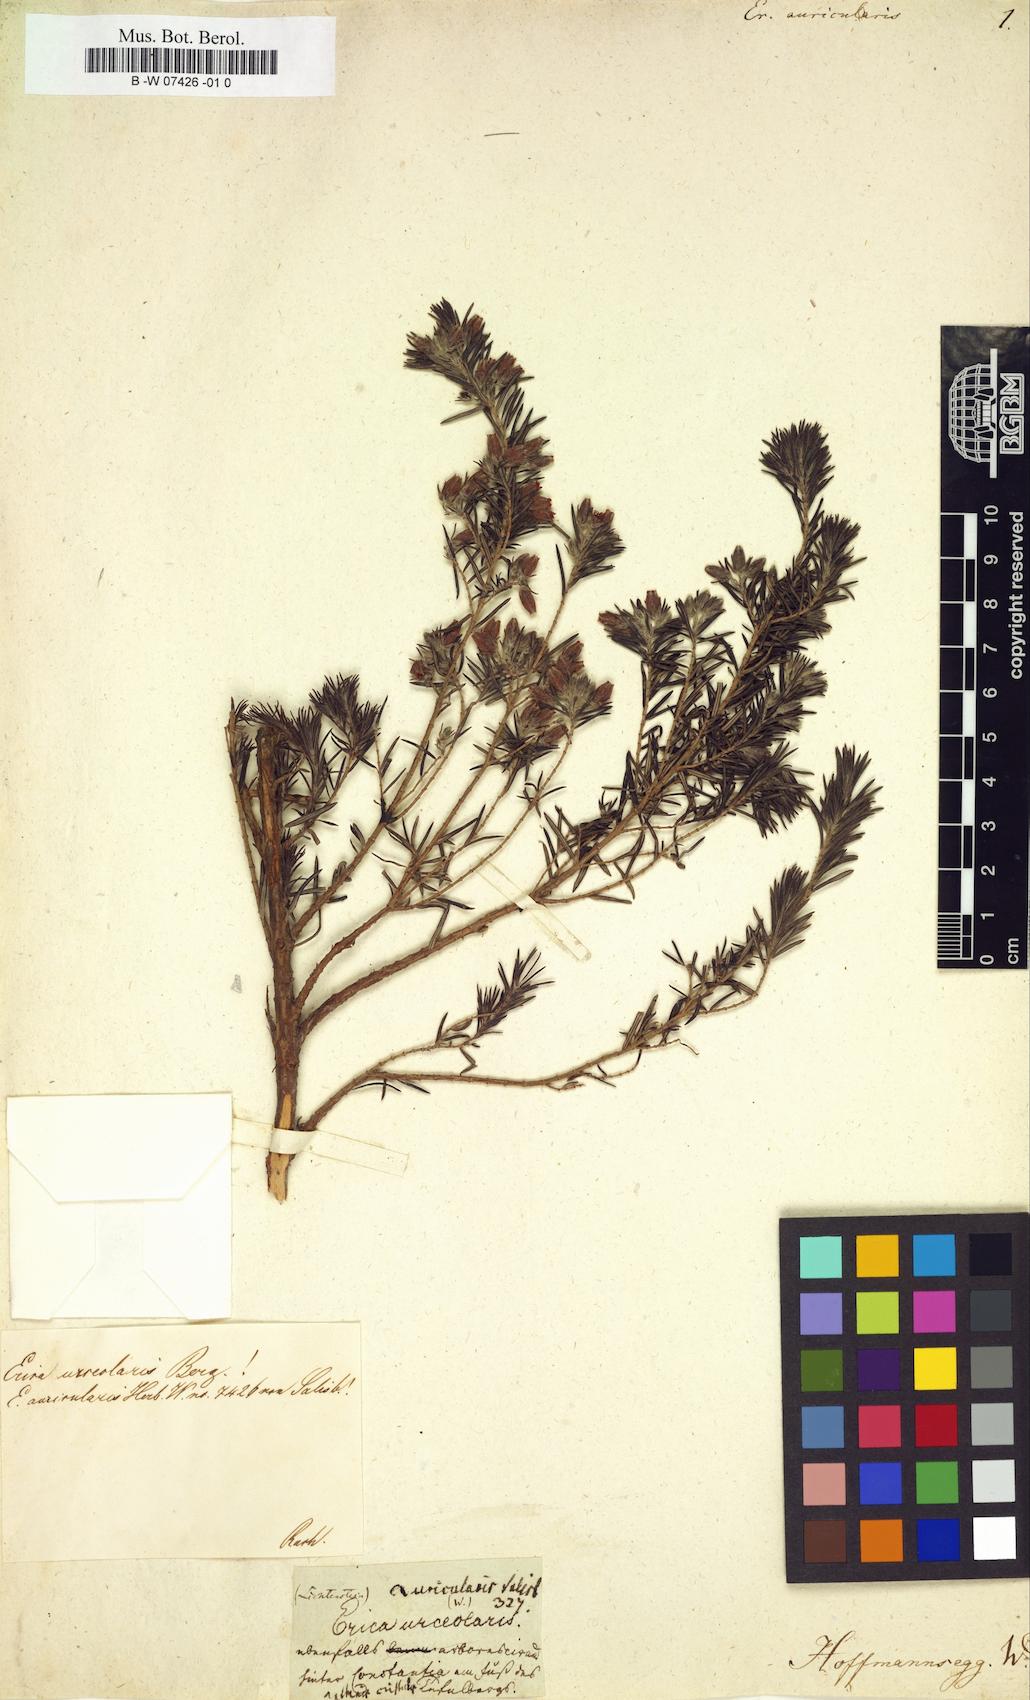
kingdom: Plantae
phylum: Tracheophyta
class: Magnoliopsida
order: Ericales
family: Ericaceae
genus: Erica
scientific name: Erica caffra
